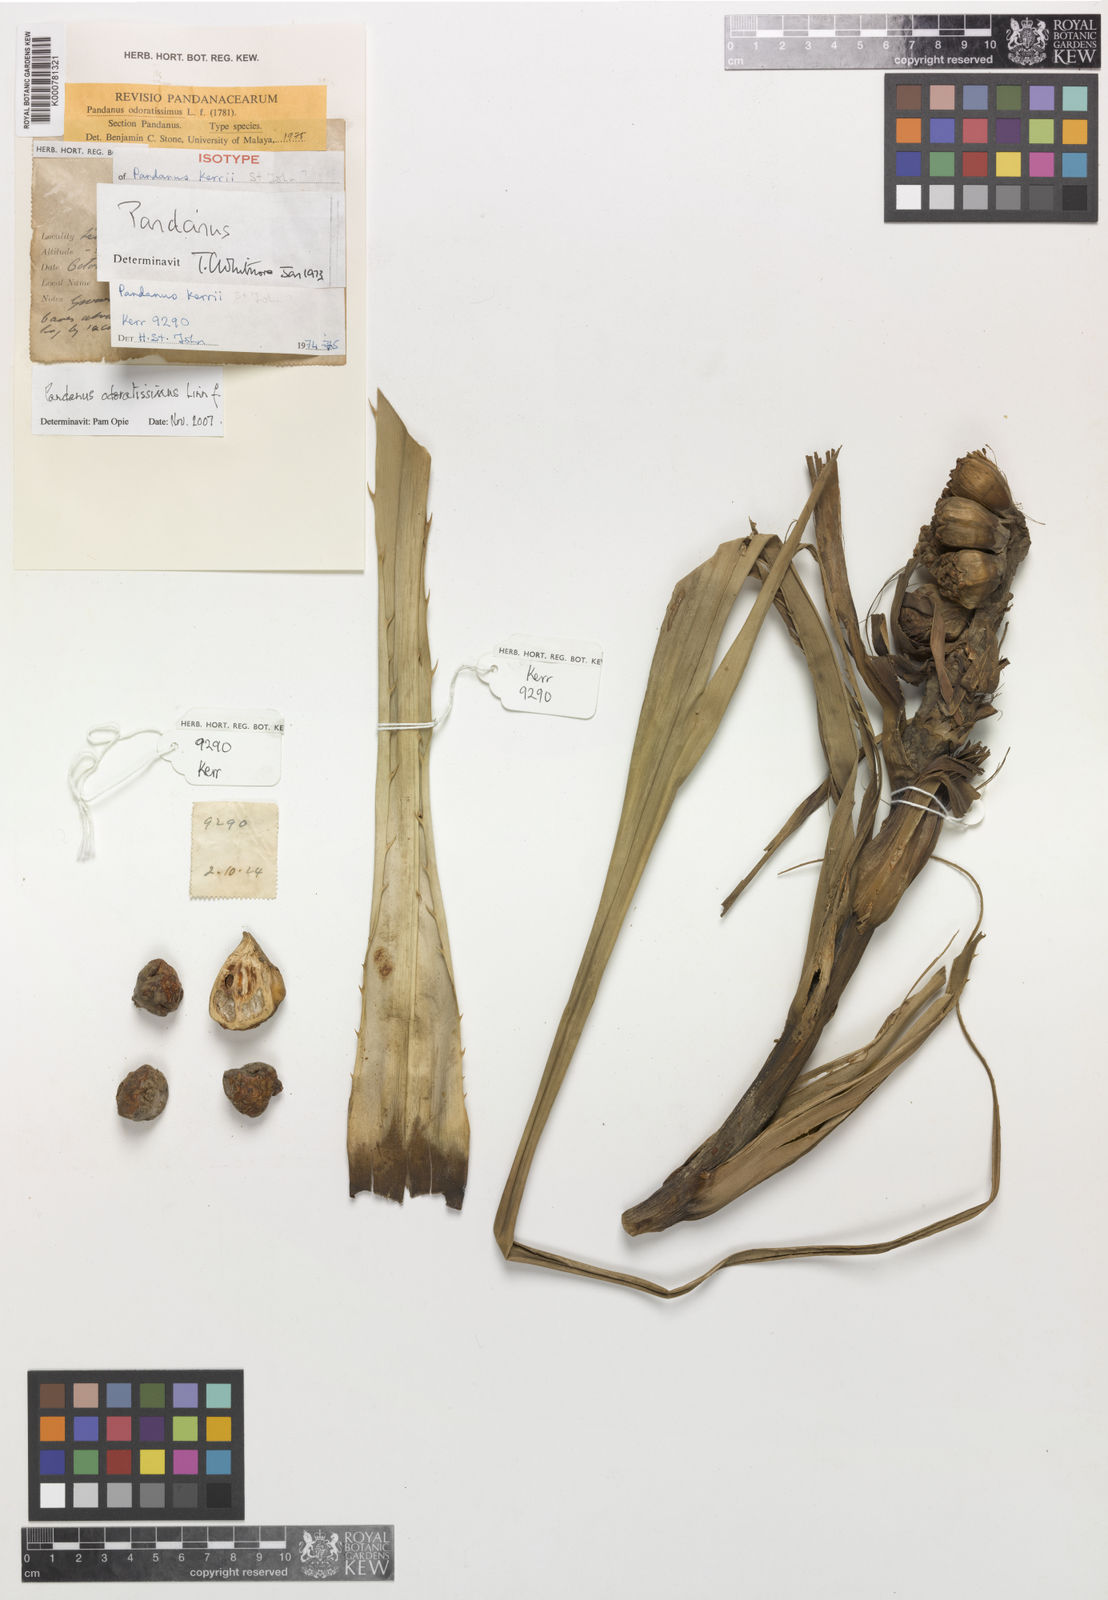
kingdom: Plantae
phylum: Tracheophyta
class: Liliopsida
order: Pandanales
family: Pandanaceae
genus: Pandanus
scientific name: Pandanus odorifer
